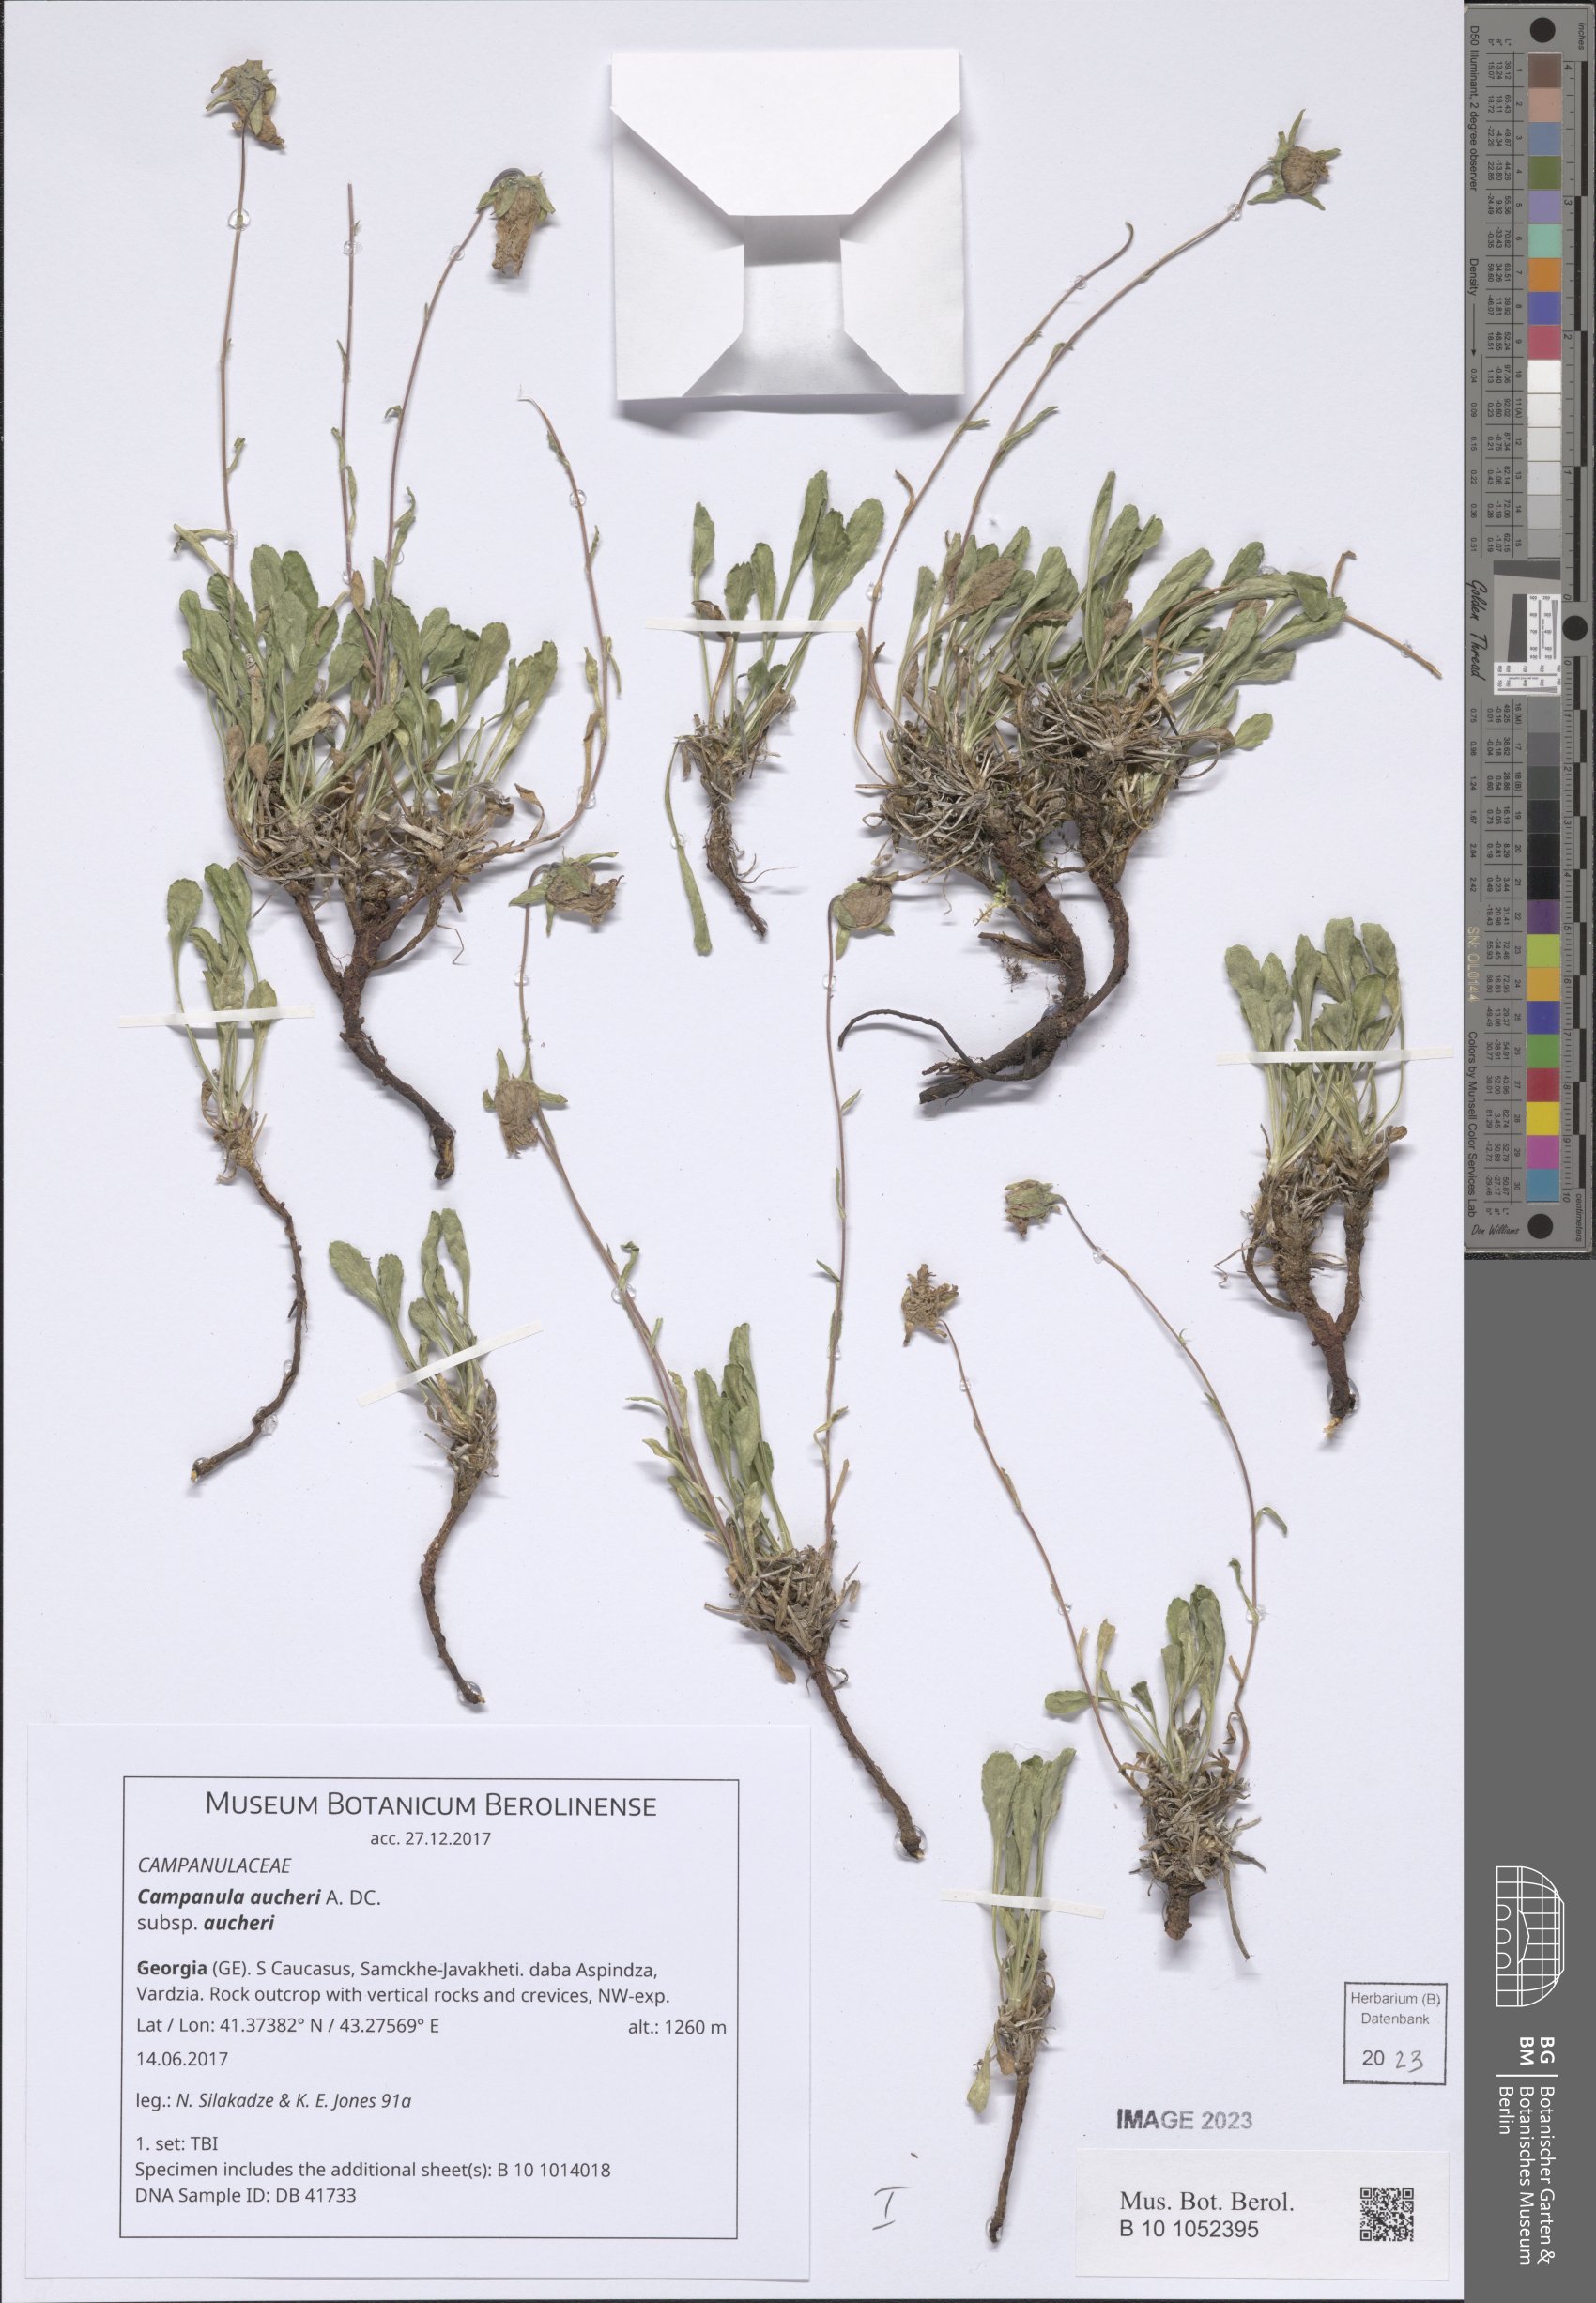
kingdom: Plantae
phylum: Tracheophyta
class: Magnoliopsida
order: Asterales
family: Campanulaceae
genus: Campanula
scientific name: Campanula saxifraga
